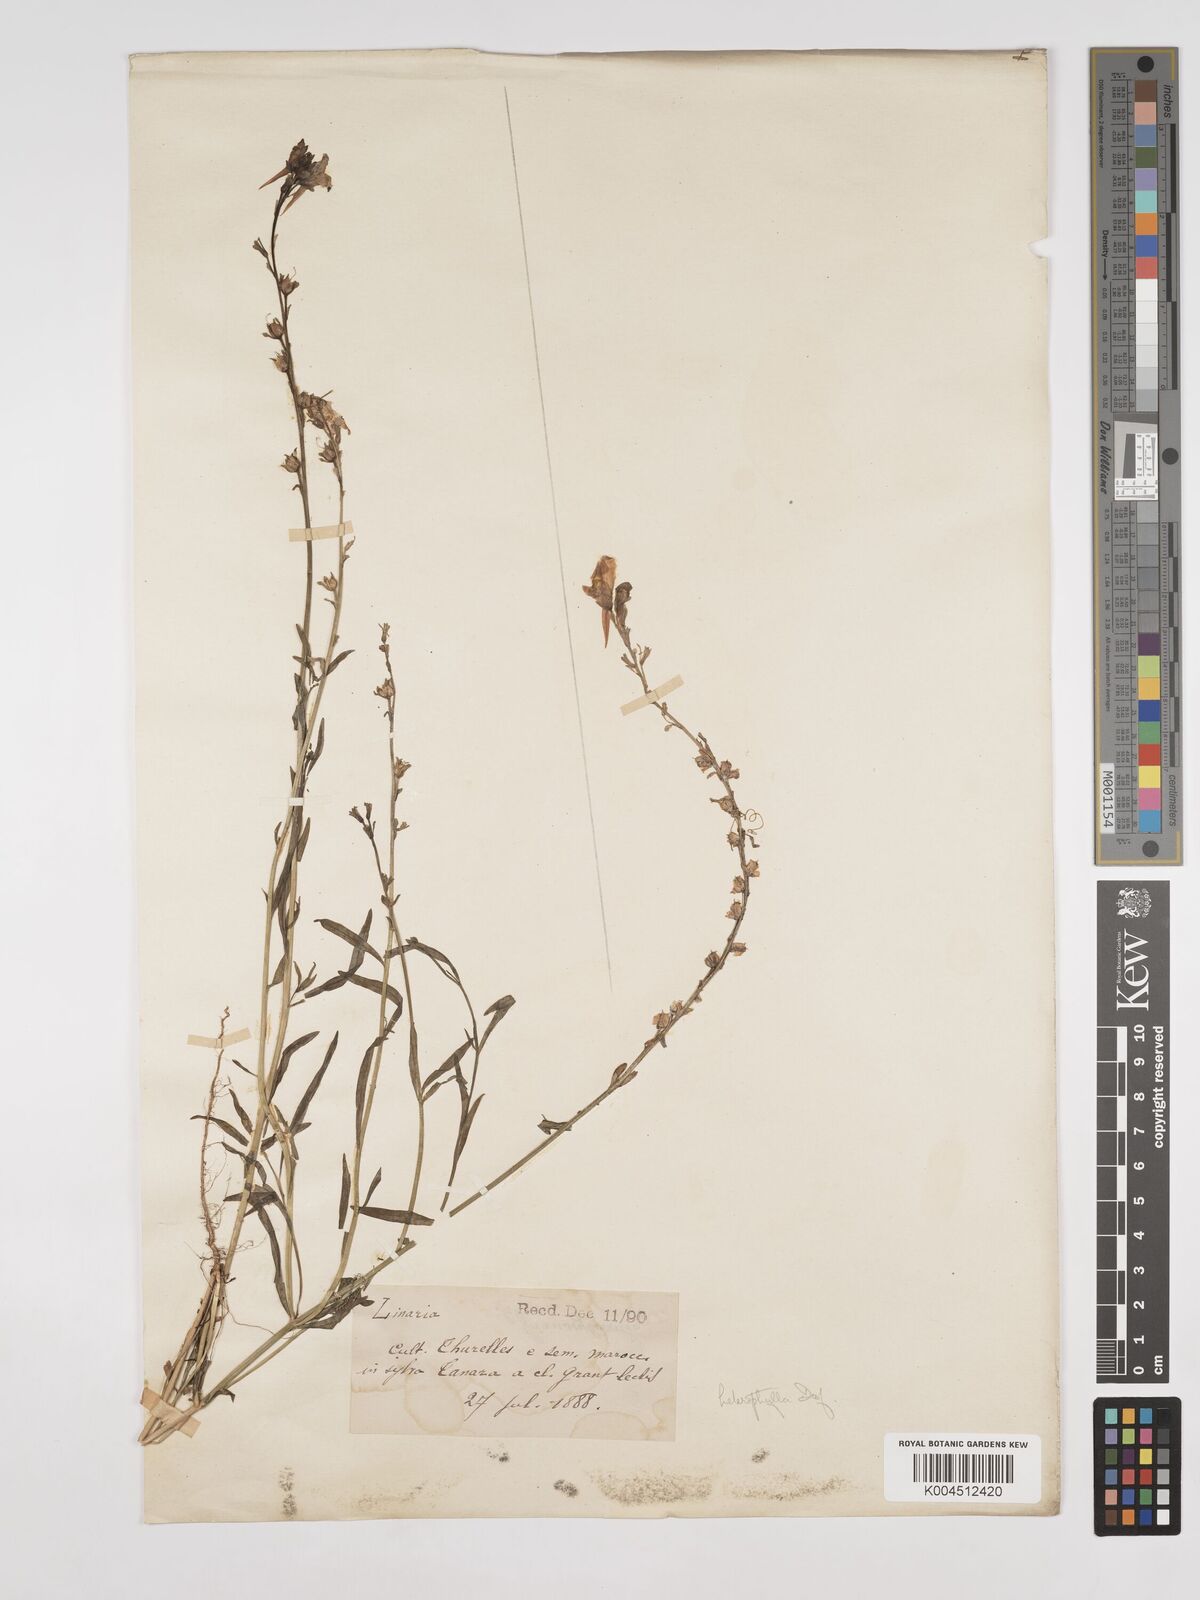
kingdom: Plantae
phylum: Tracheophyta
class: Magnoliopsida
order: Lamiales
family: Plantaginaceae
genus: Linaria
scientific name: Linaria multicaulis
